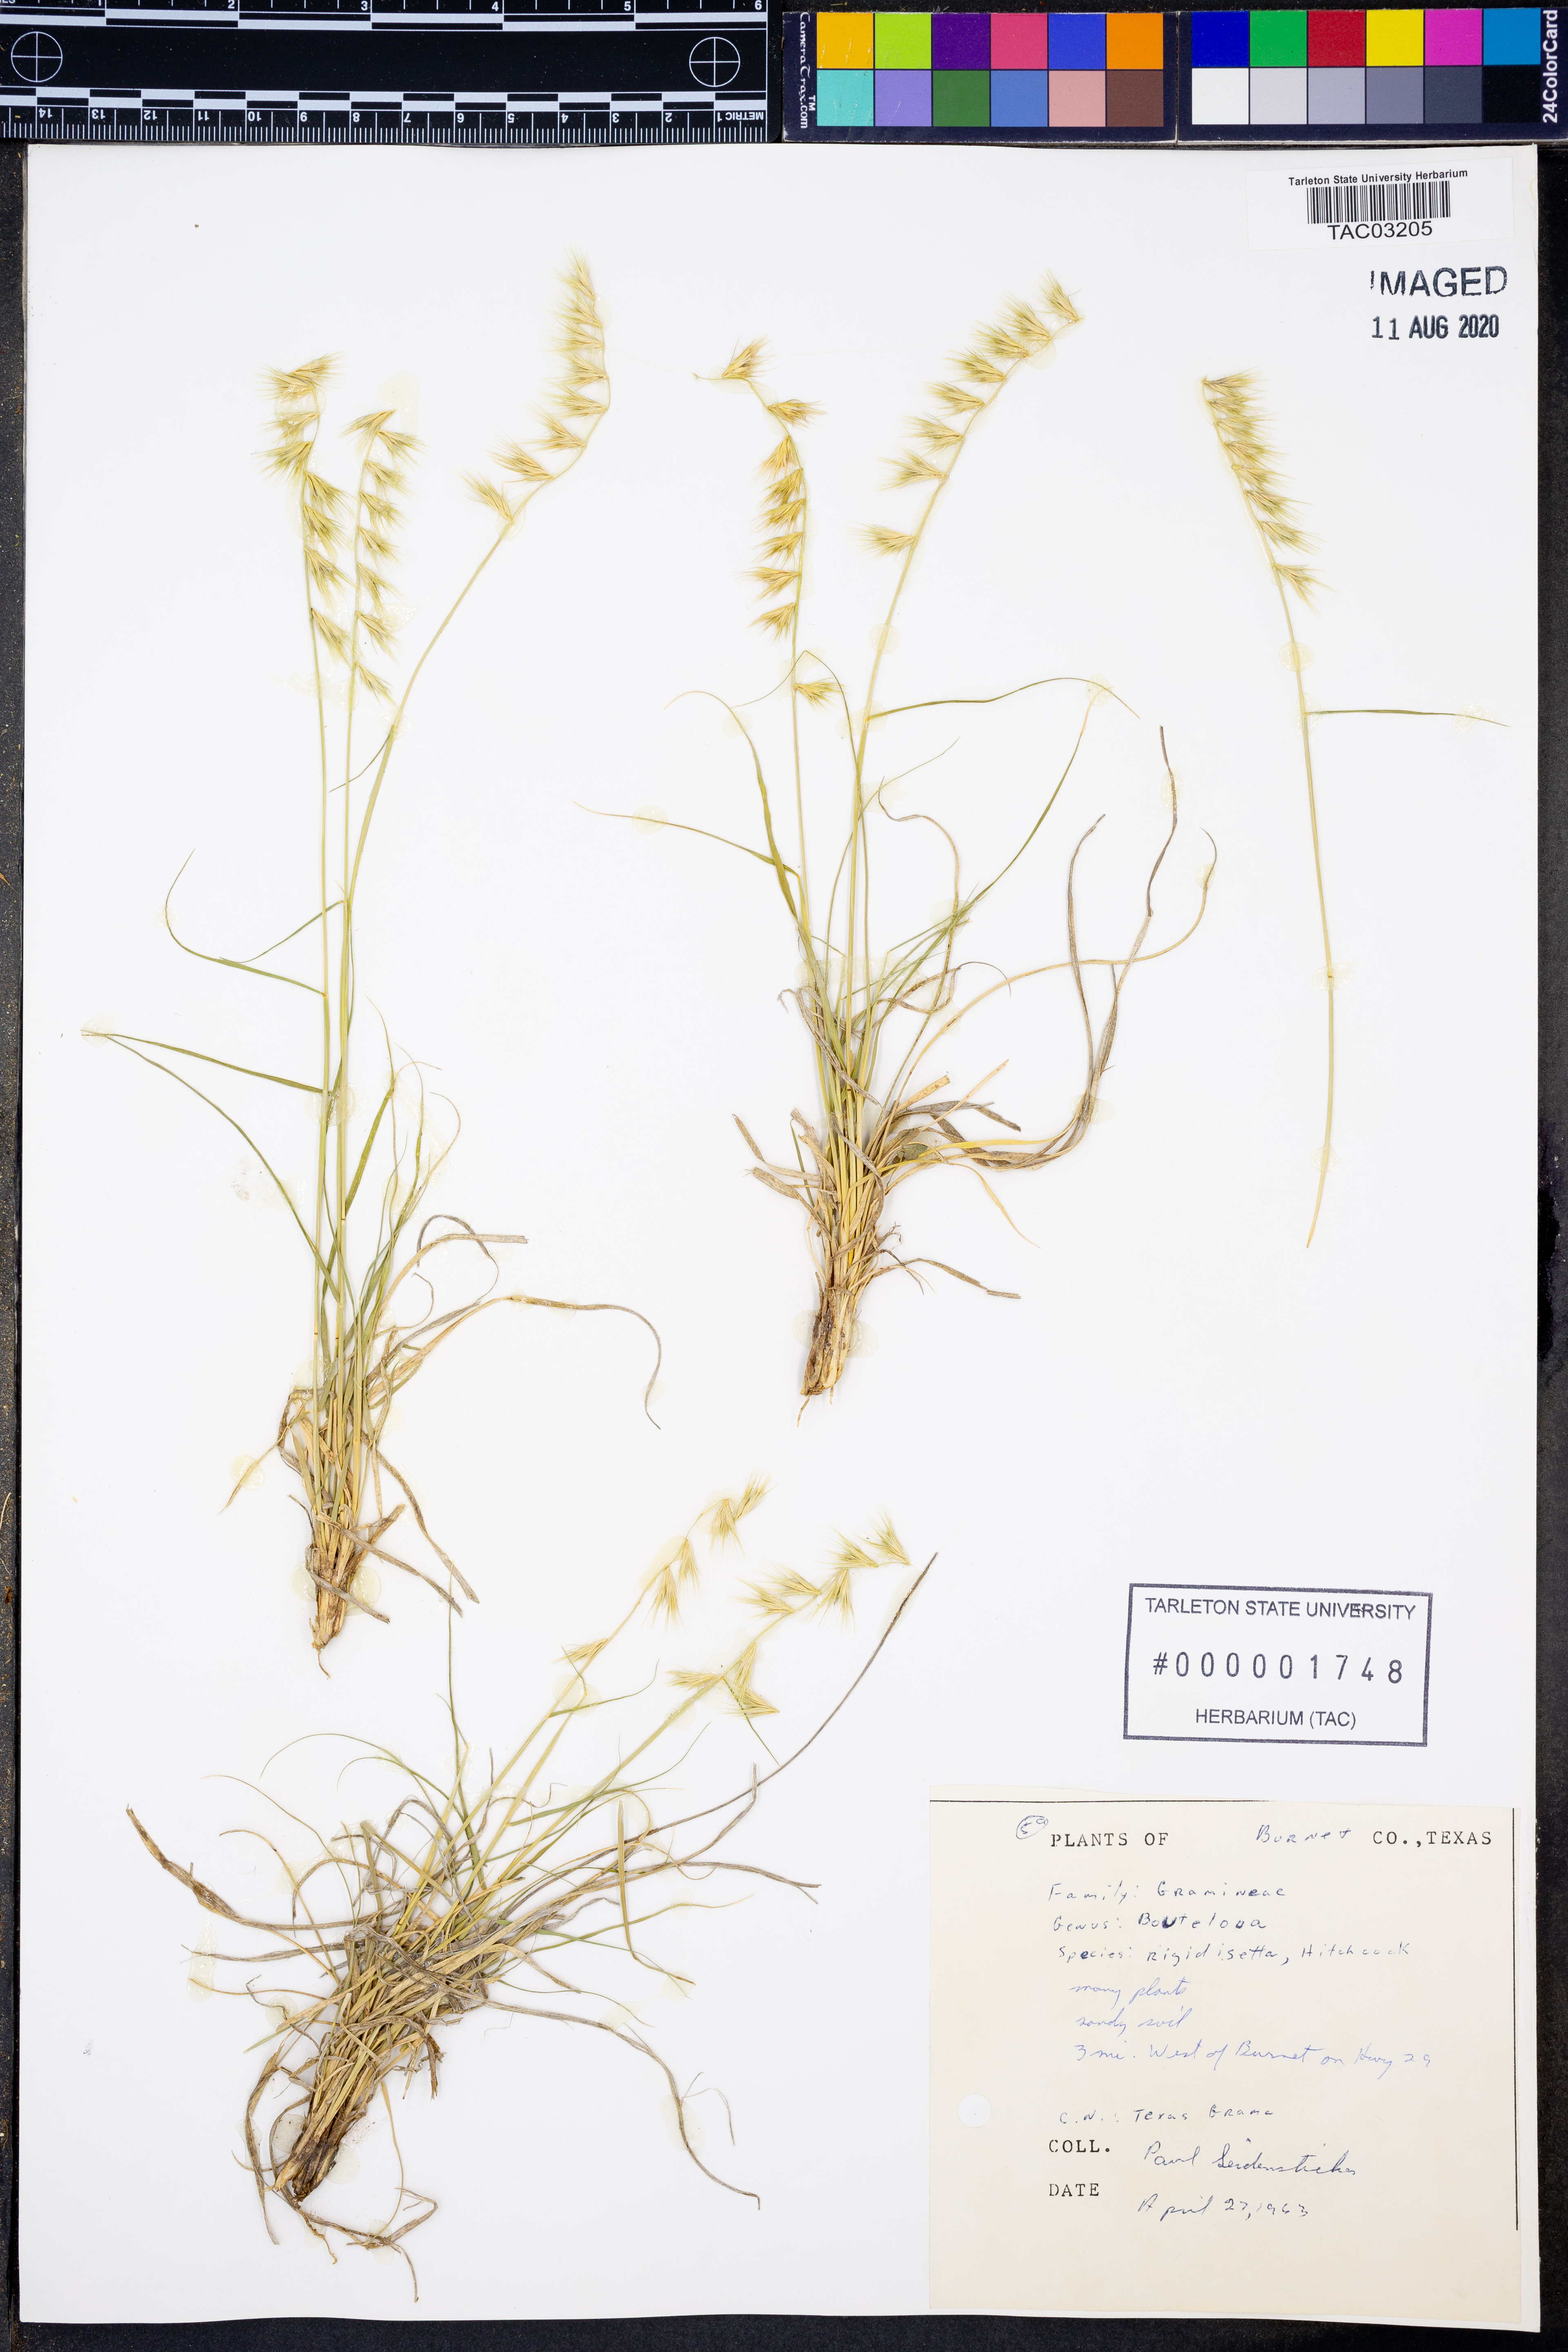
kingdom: Plantae
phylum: Tracheophyta
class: Liliopsida
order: Poales
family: Poaceae
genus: Bouteloua
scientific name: Bouteloua rigidiseta
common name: Texas grama
